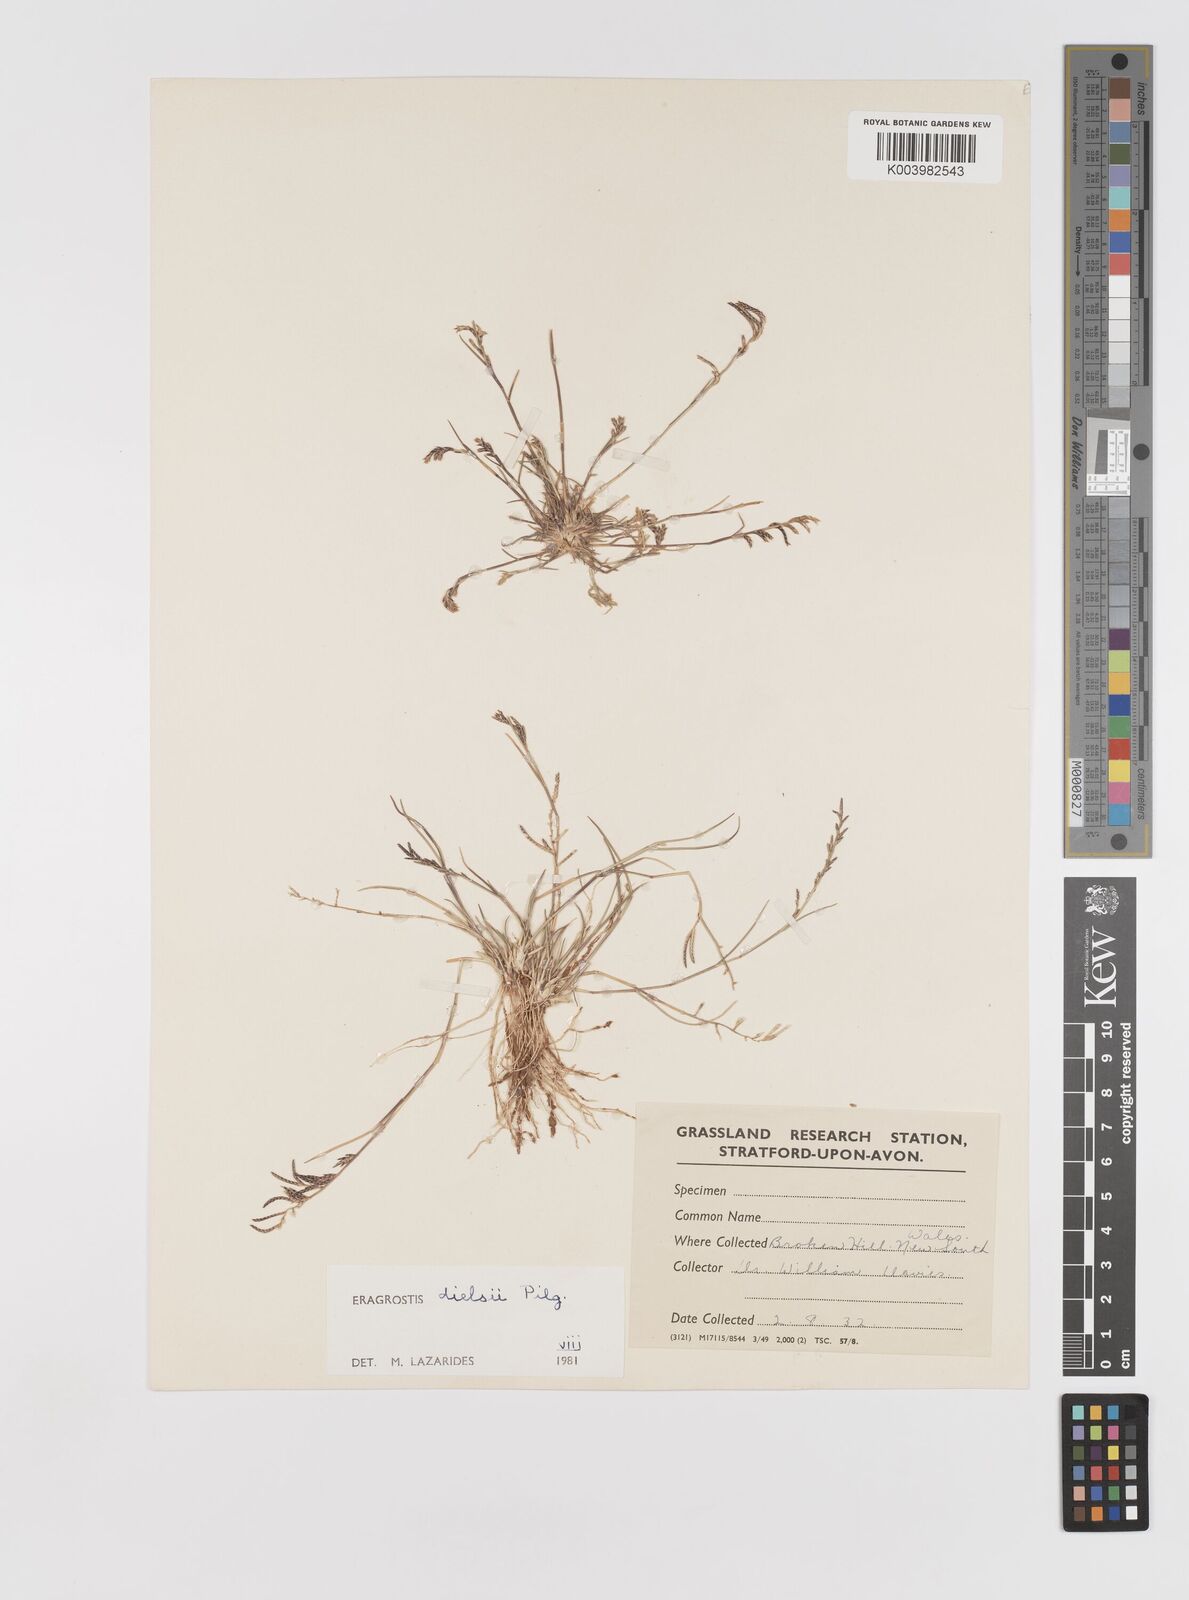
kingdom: Plantae
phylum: Tracheophyta
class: Liliopsida
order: Poales
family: Poaceae
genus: Eragrostis
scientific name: Eragrostis dielsii
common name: Lovegrass
